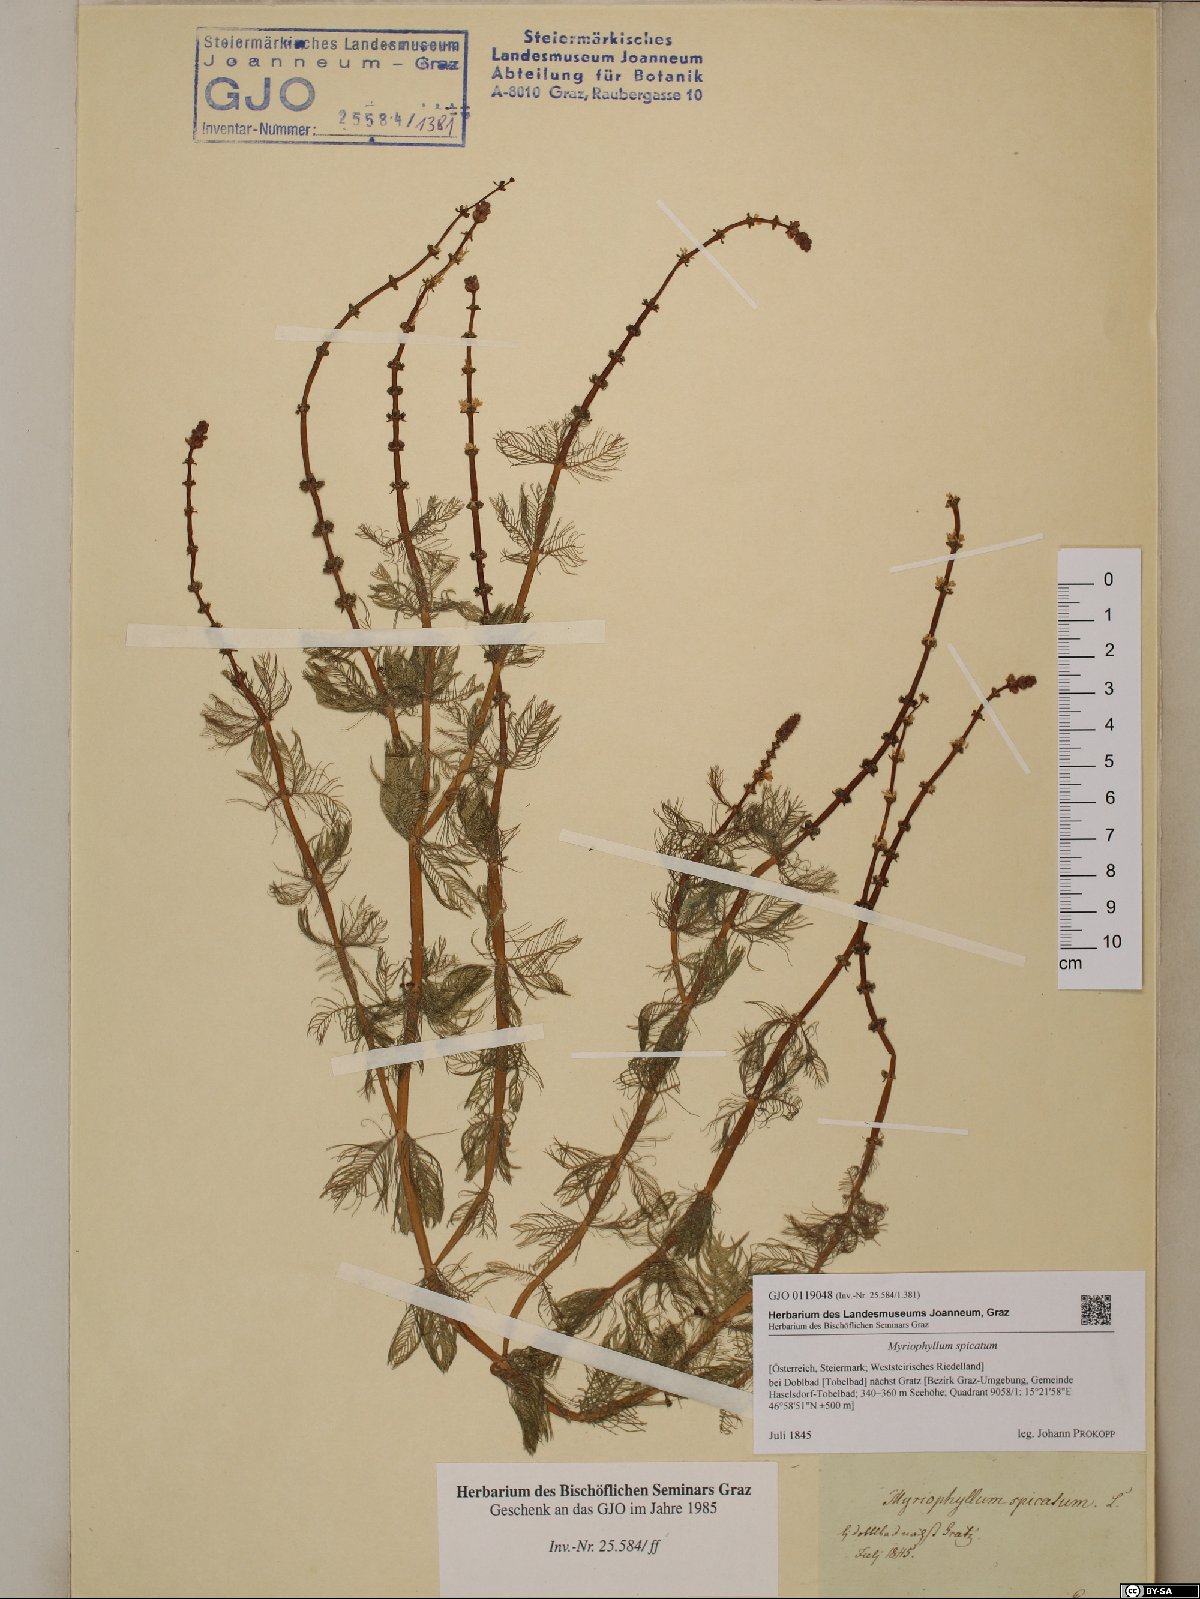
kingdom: Plantae
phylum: Tracheophyta
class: Magnoliopsida
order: Saxifragales
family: Haloragaceae
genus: Myriophyllum
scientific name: Myriophyllum spicatum
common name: Spiked water-milfoil
